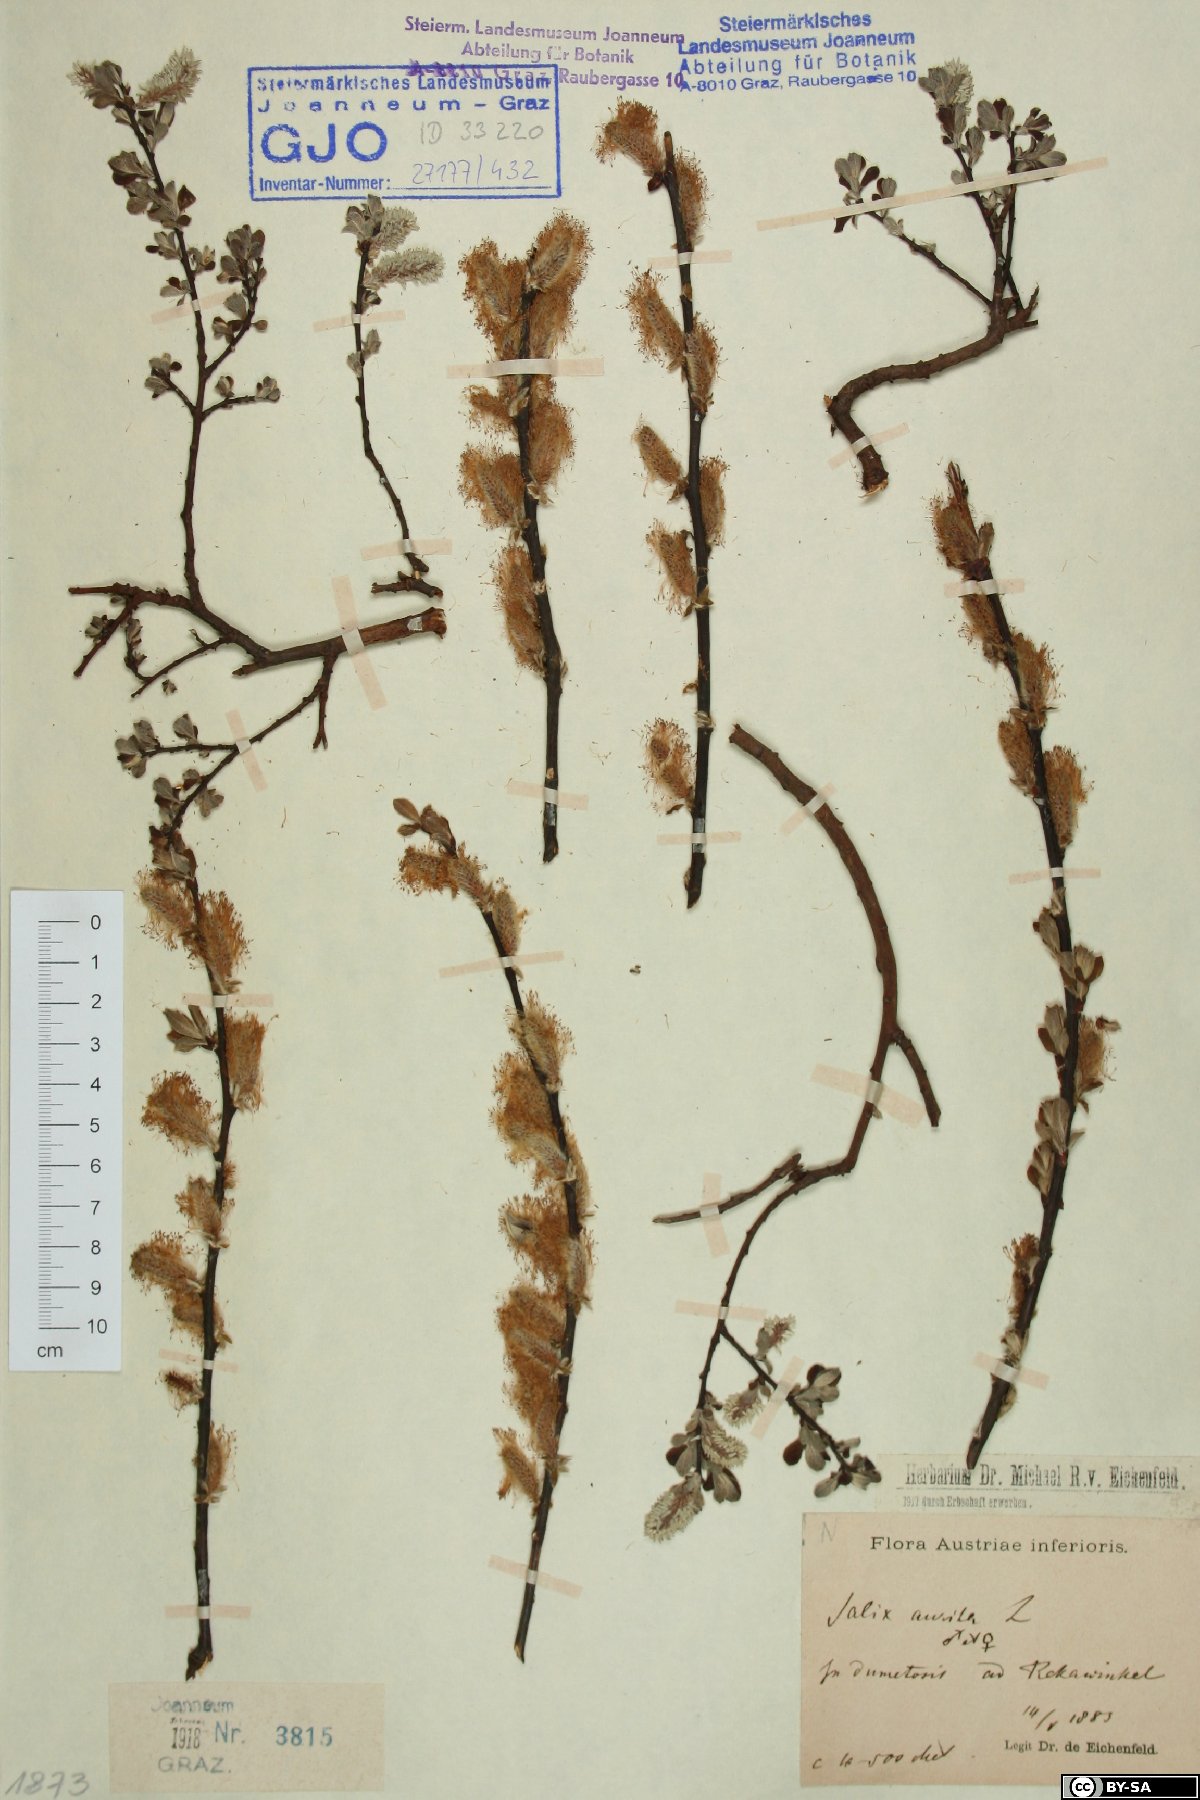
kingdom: Plantae
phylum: Tracheophyta
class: Magnoliopsida
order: Malpighiales
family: Salicaceae
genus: Salix
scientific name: Salix aurita
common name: Eared willow
